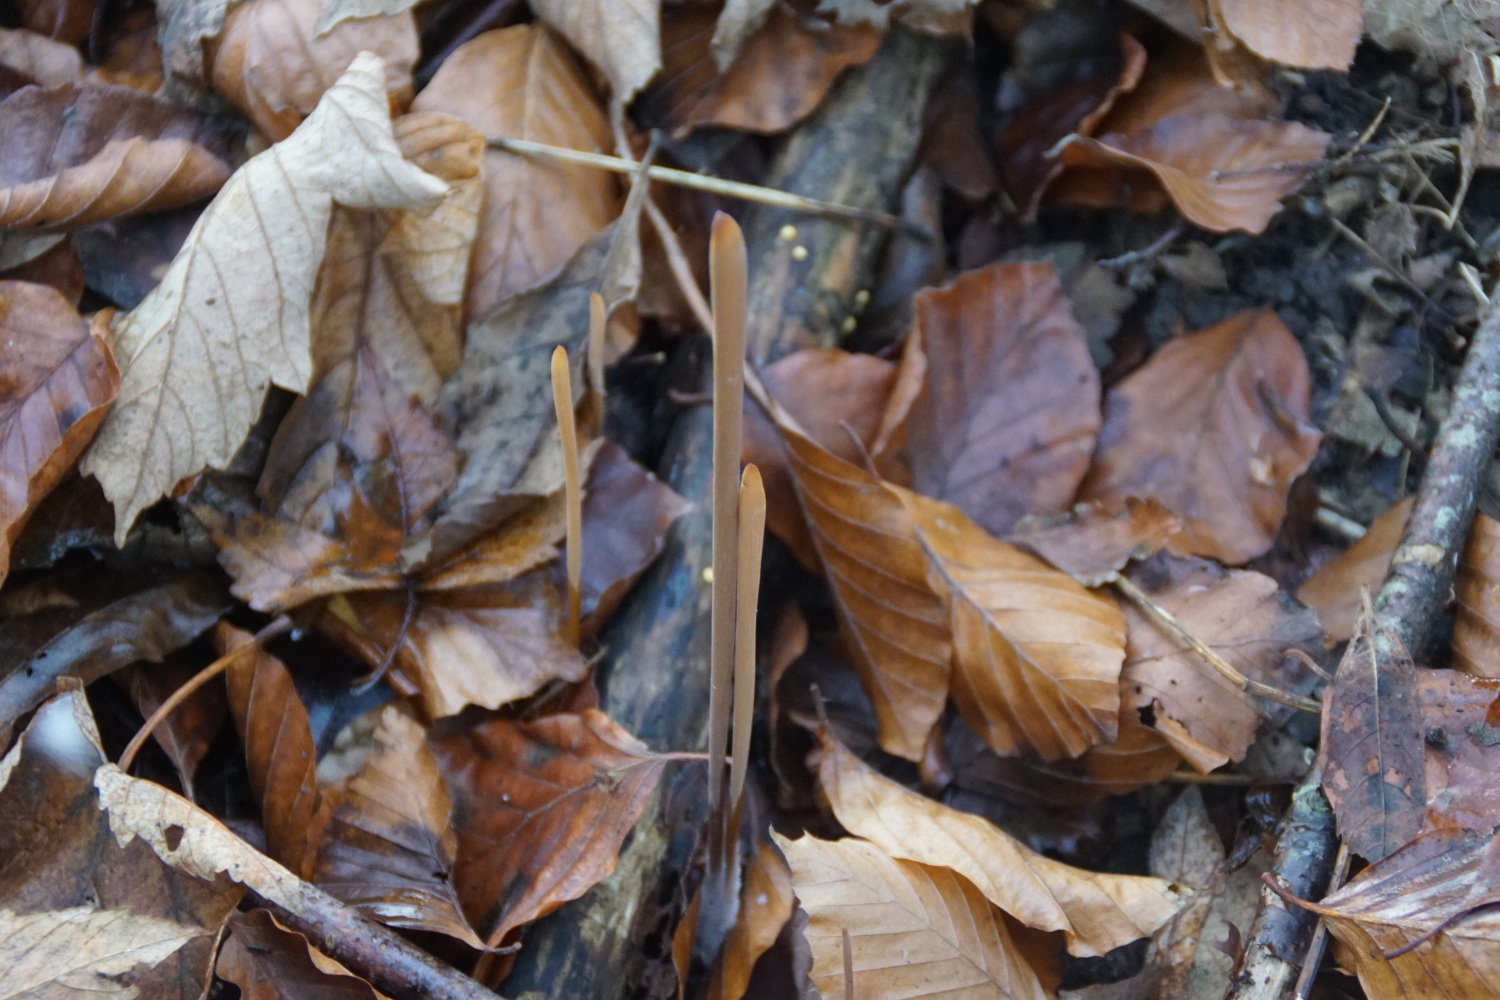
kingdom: Fungi
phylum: Basidiomycota
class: Agaricomycetes
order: Agaricales
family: Typhulaceae
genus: Typhula
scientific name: Typhula fistulosa
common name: pibet rørkølle
